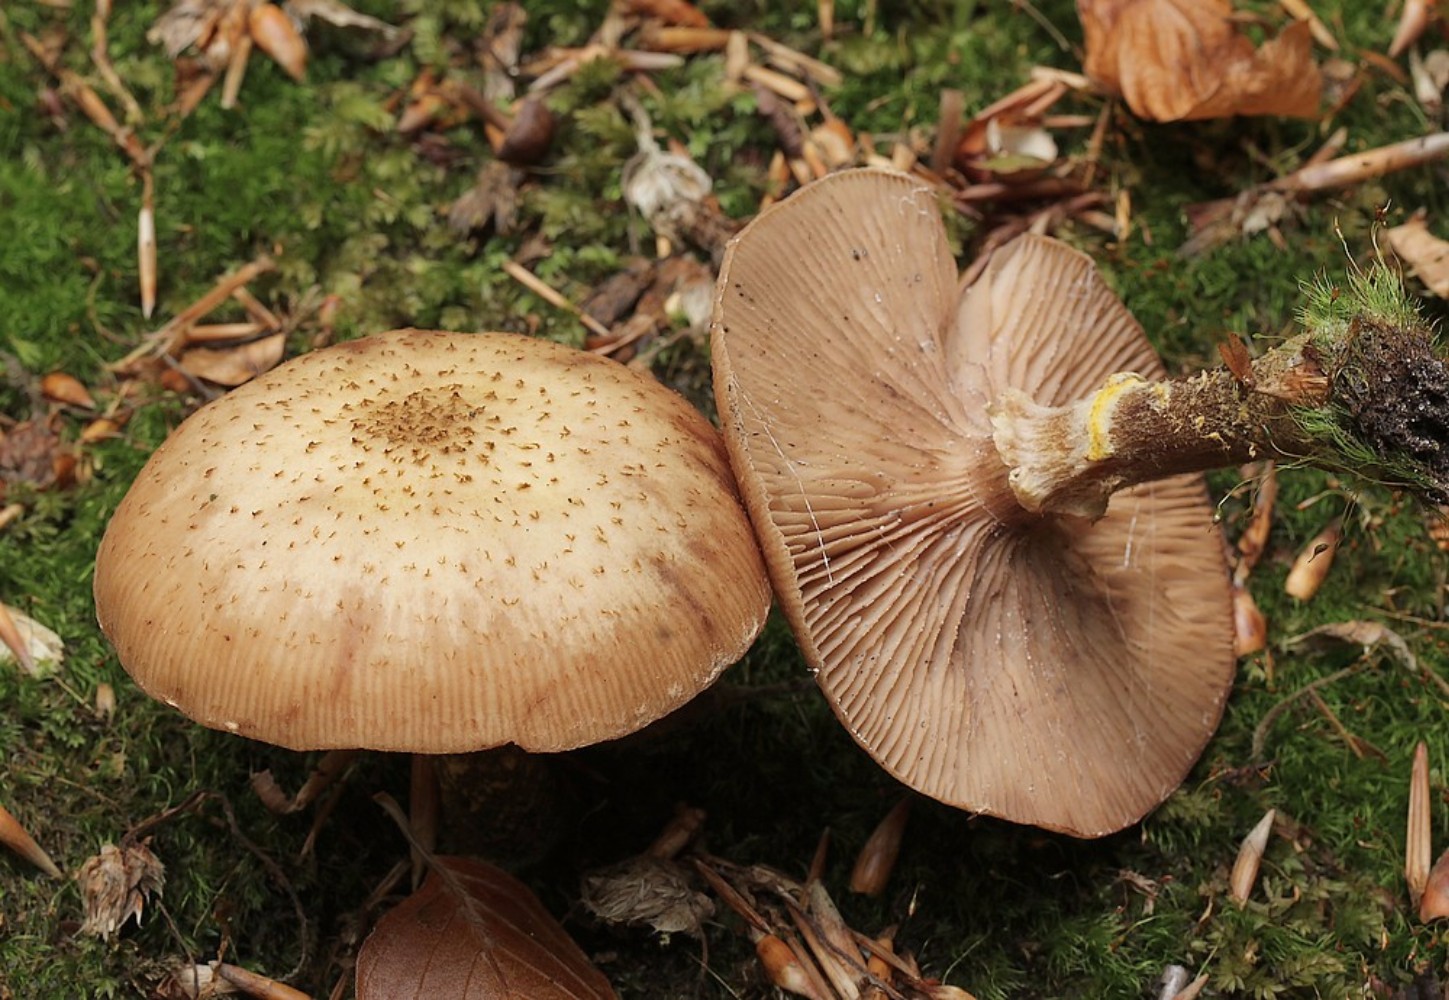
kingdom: Fungi
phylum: Basidiomycota
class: Agaricomycetes
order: Agaricales
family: Physalacriaceae
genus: Armillaria
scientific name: Armillaria lutea
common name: køllestokket honningsvamp
